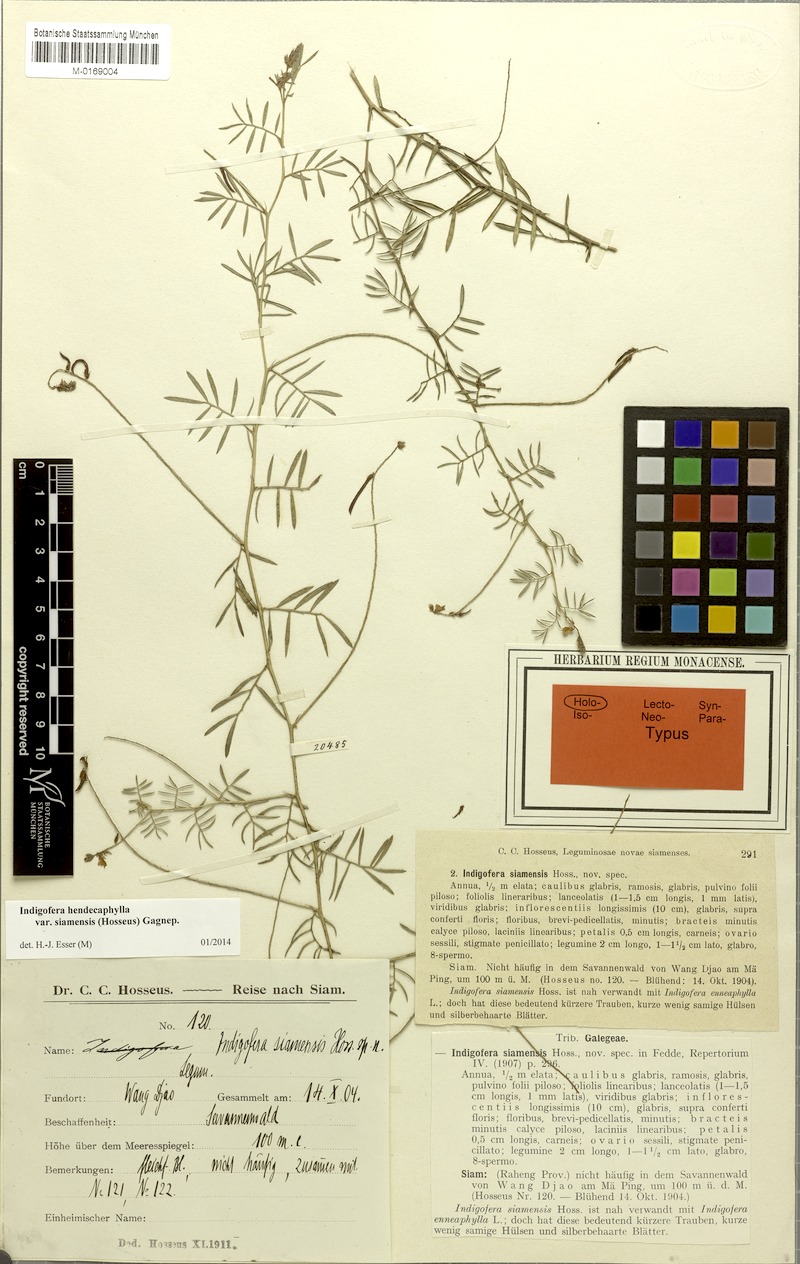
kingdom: Plantae
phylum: Tracheophyta
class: Magnoliopsida
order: Fabales
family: Fabaceae
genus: Indigofera
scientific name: Indigofera hendecaphylla
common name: Trailing indigo
